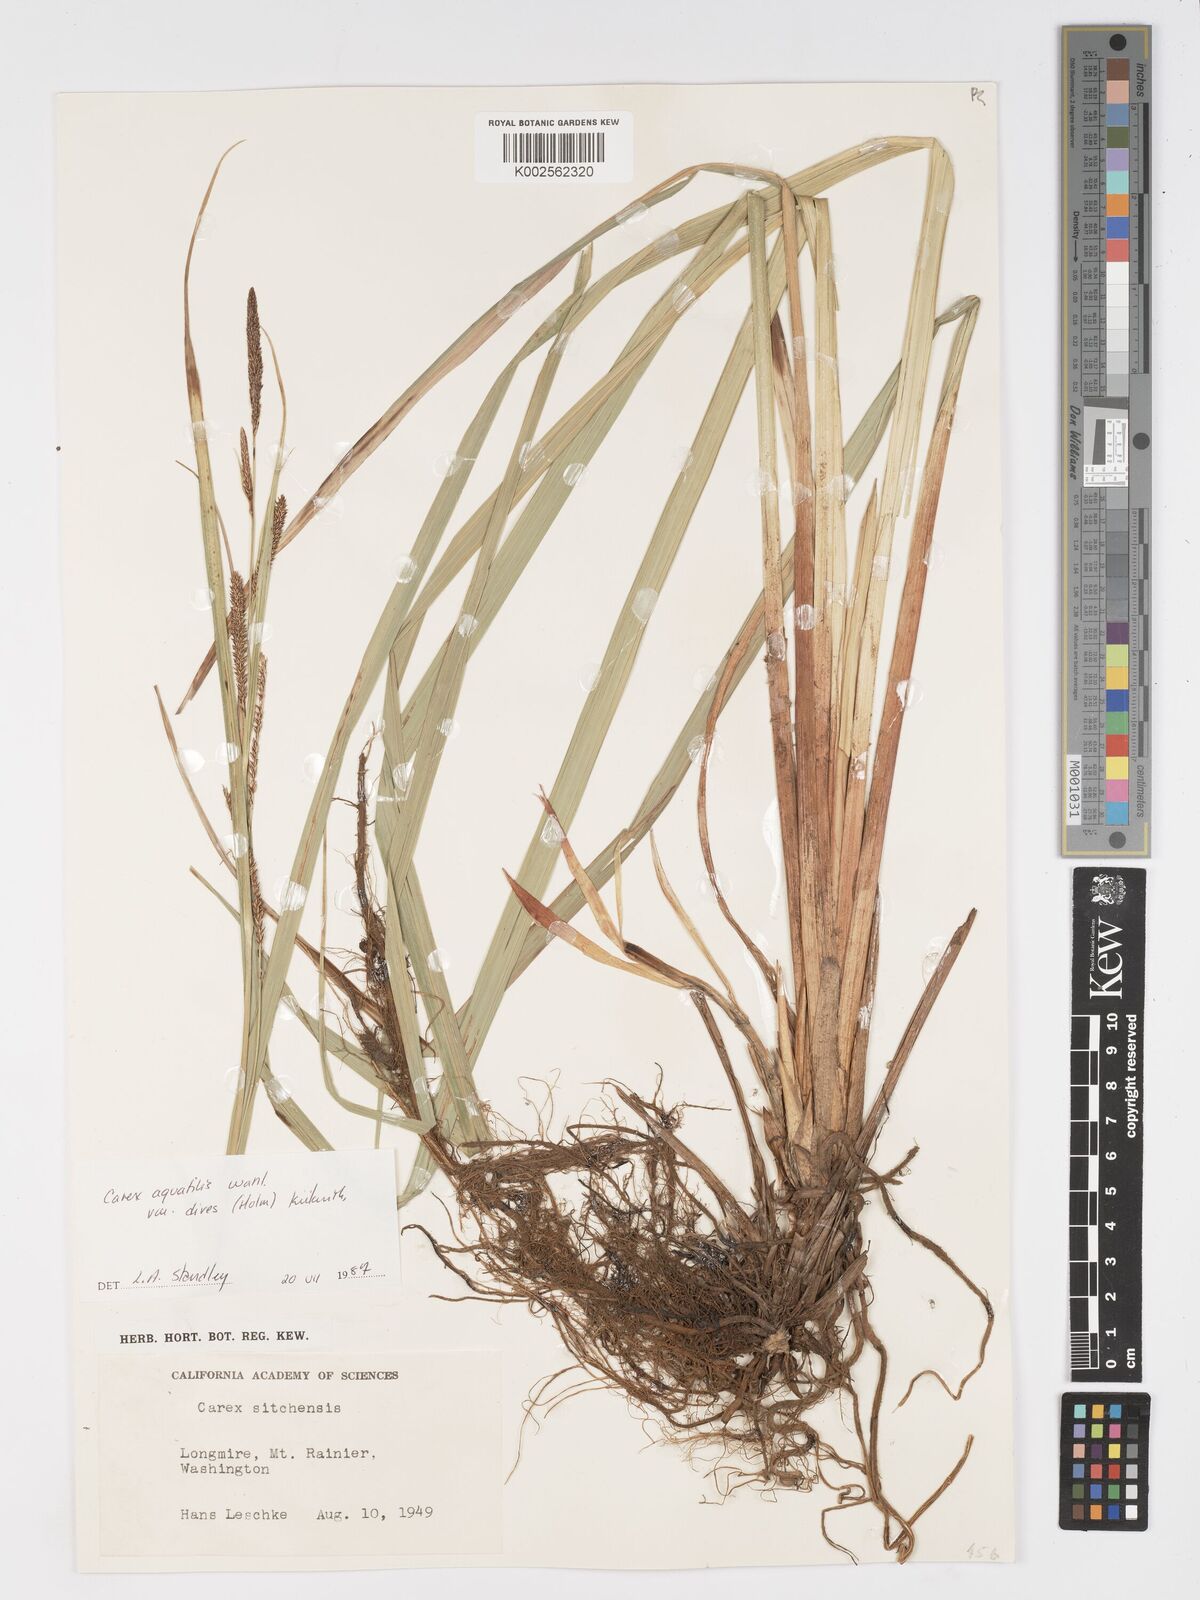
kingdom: Plantae
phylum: Tracheophyta
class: Liliopsida
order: Poales
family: Cyperaceae
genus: Carex
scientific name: Carex aquatilis
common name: Water sedge
